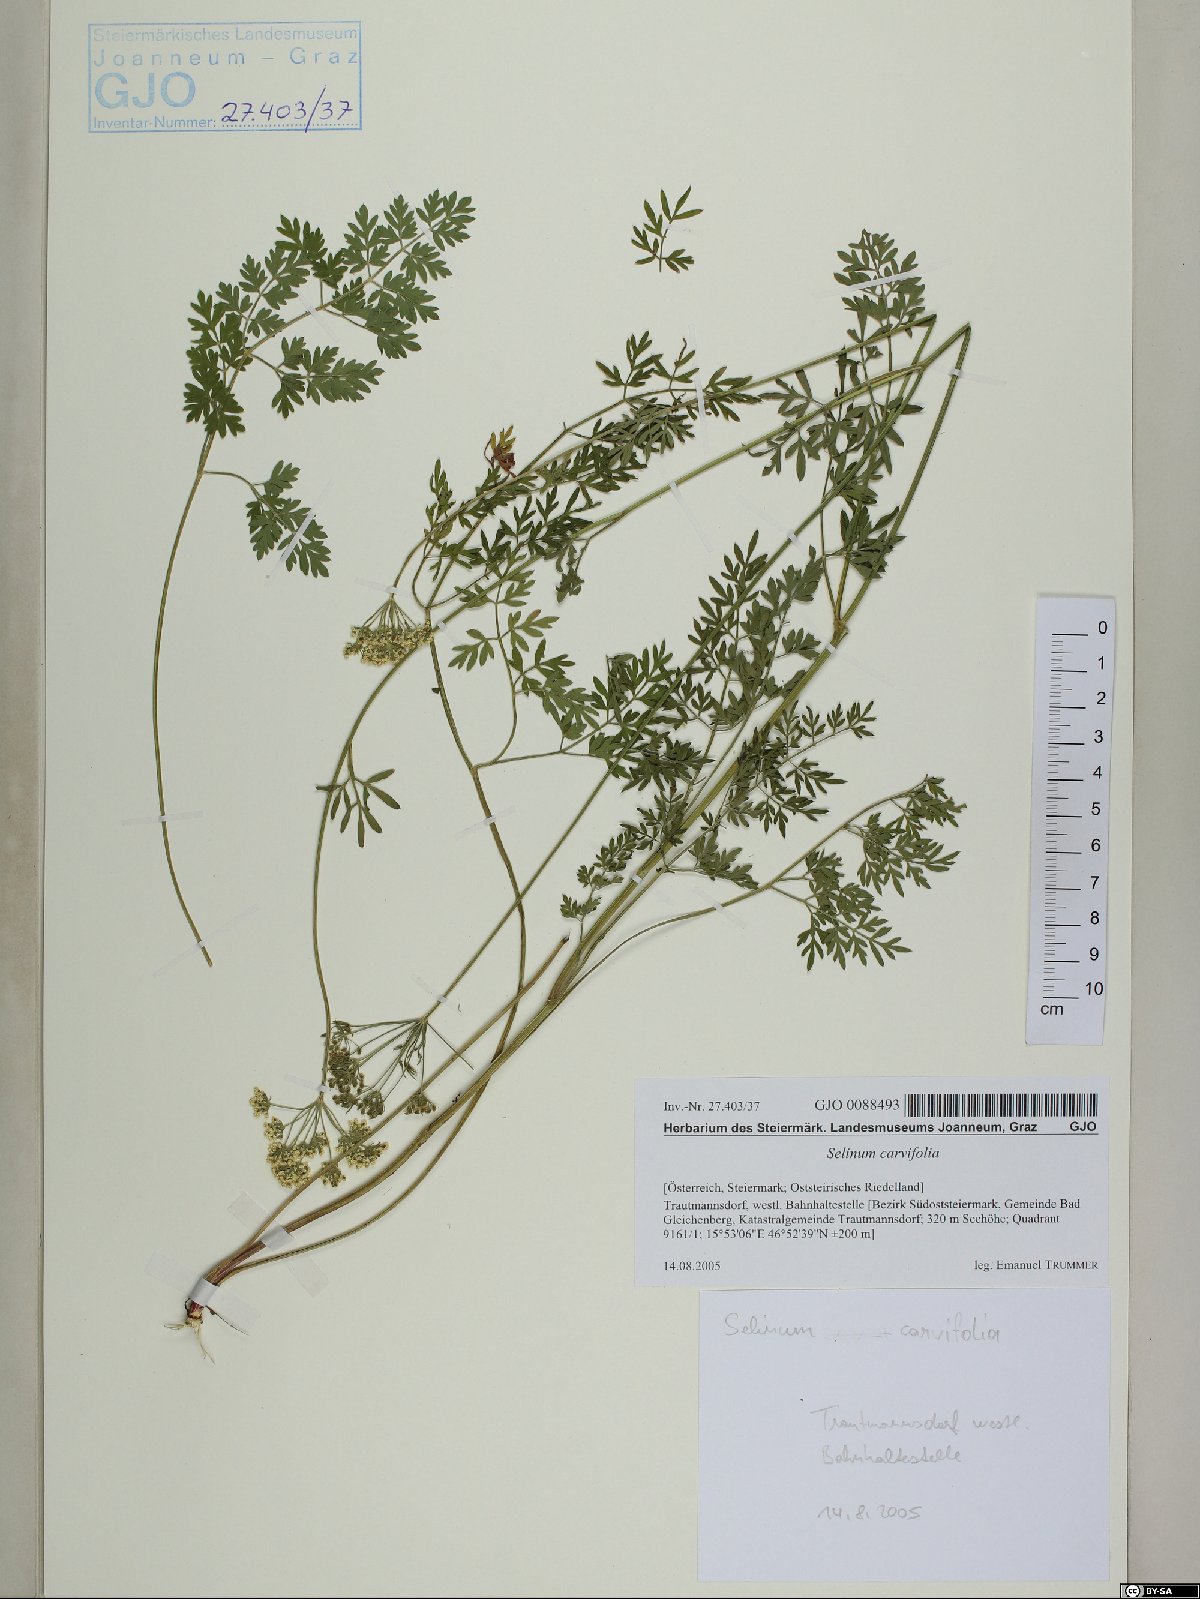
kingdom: Plantae
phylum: Tracheophyta
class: Magnoliopsida
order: Apiales
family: Apiaceae
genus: Selinum
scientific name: Selinum carvifolia
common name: Cambridge milk-parsley
